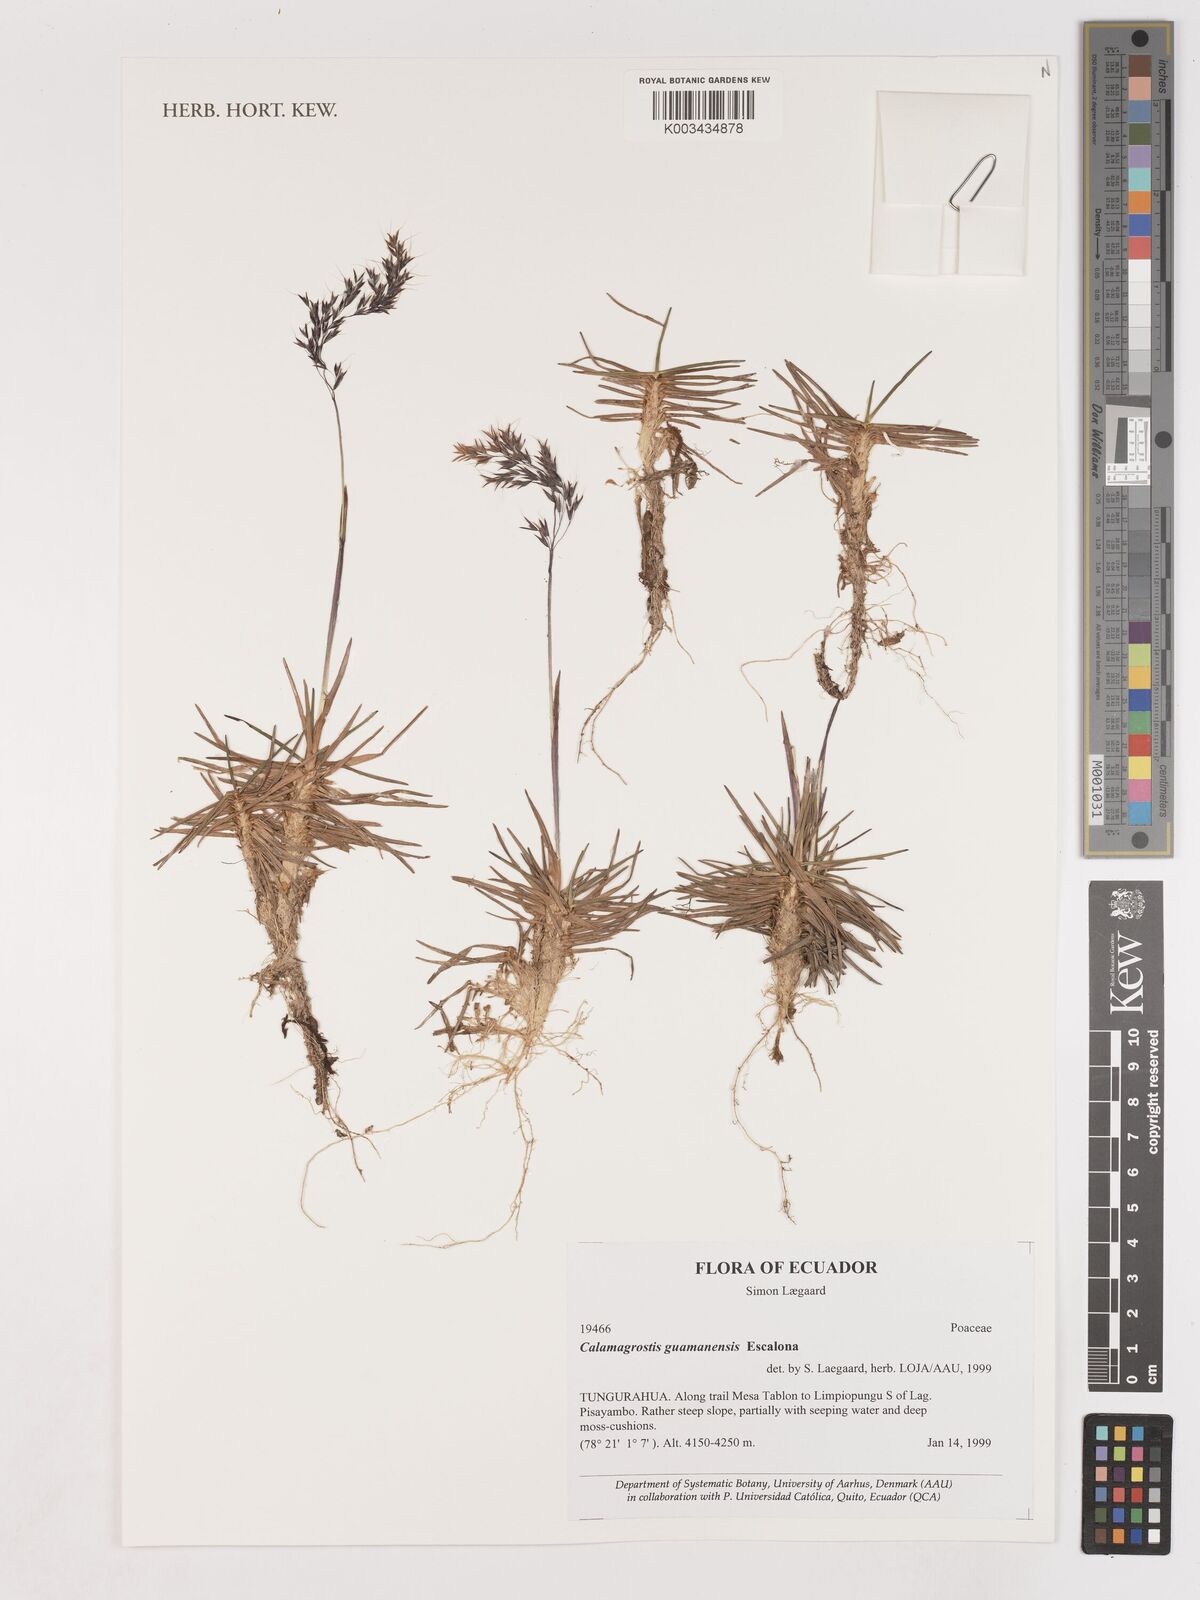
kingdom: Plantae
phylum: Tracheophyta
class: Liliopsida
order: Poales
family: Poaceae
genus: Calamagrostis
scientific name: Calamagrostis
